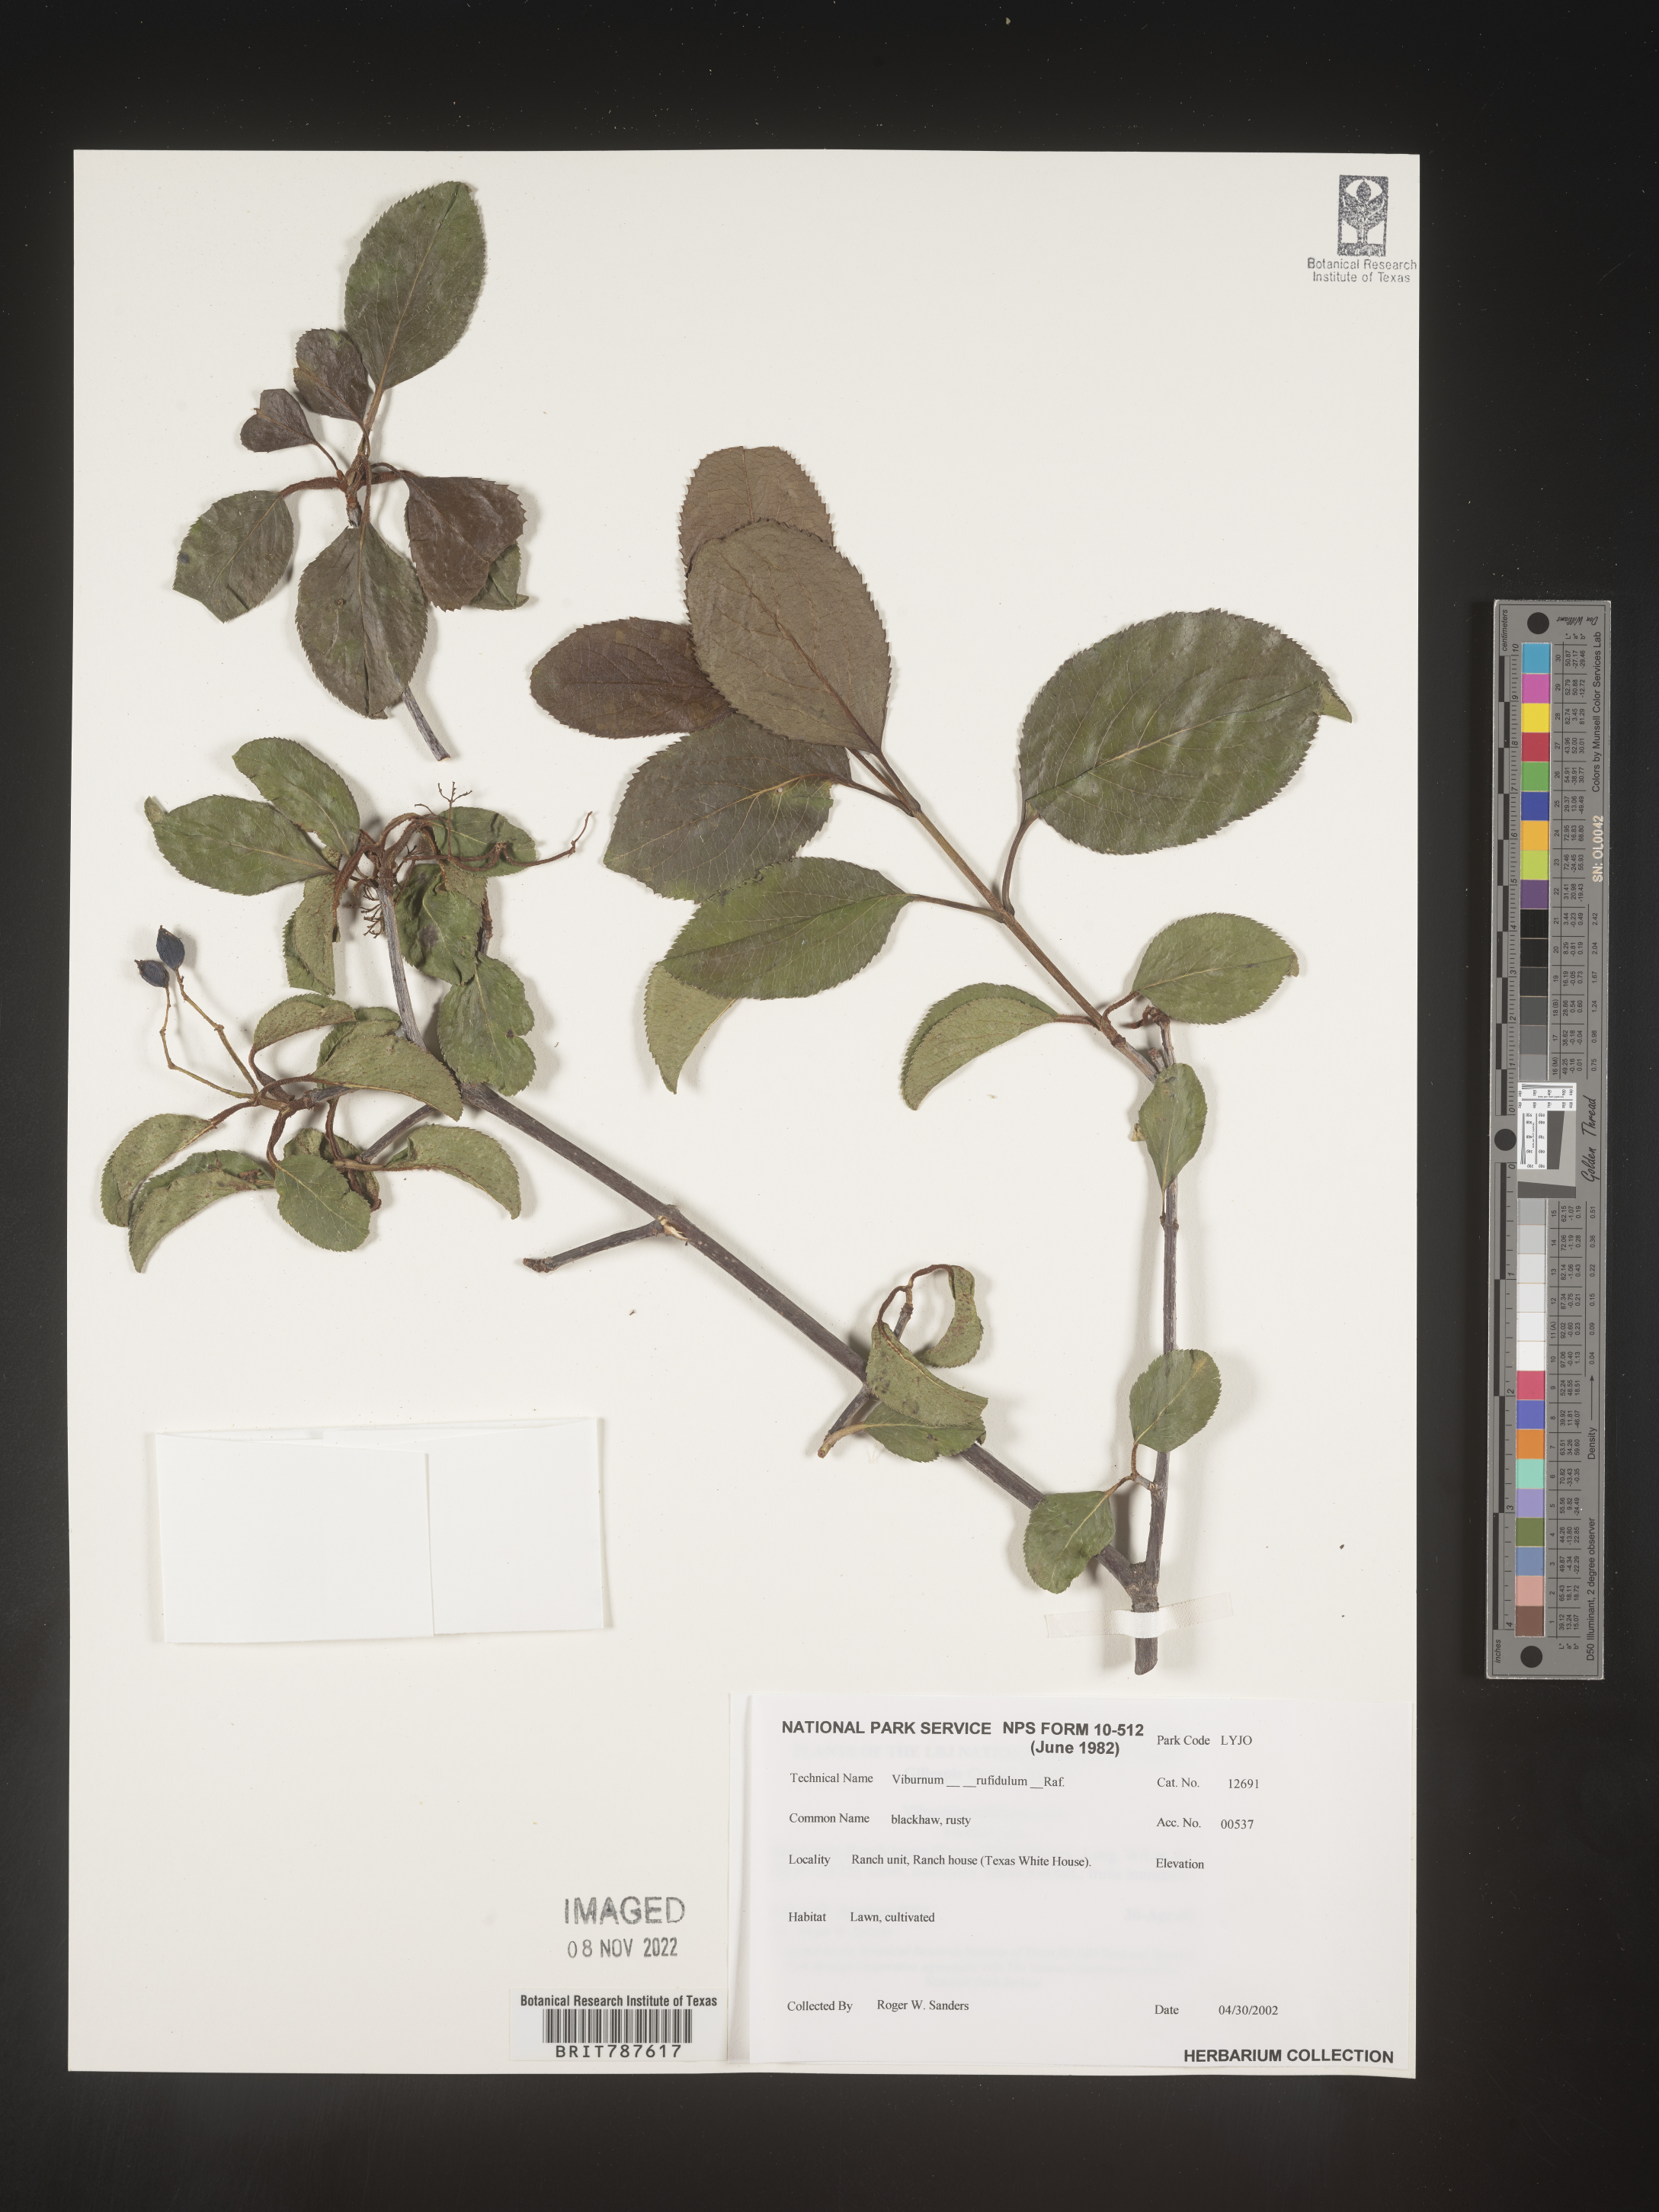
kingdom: Plantae
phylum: Tracheophyta
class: Magnoliopsida
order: Dipsacales
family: Viburnaceae
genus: Viburnum
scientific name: Viburnum
